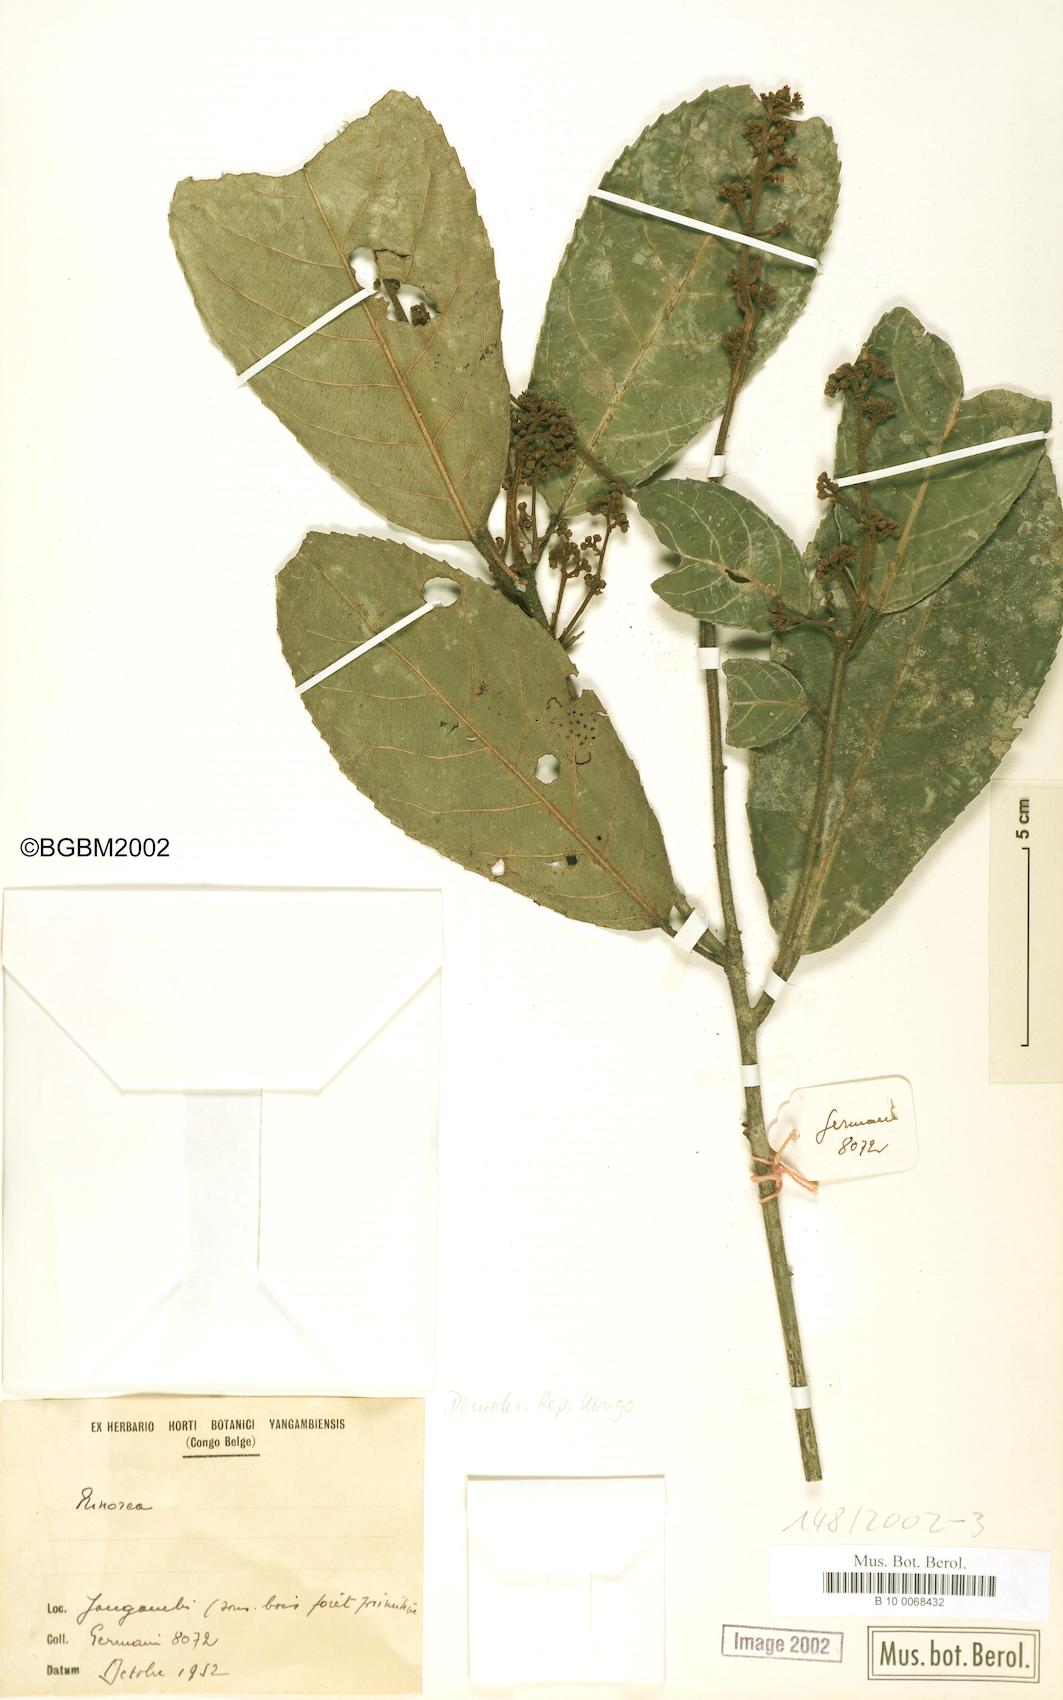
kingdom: Plantae
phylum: Tracheophyta
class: Magnoliopsida
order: Malpighiales
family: Violaceae
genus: Rinorea
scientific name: Rinorea
